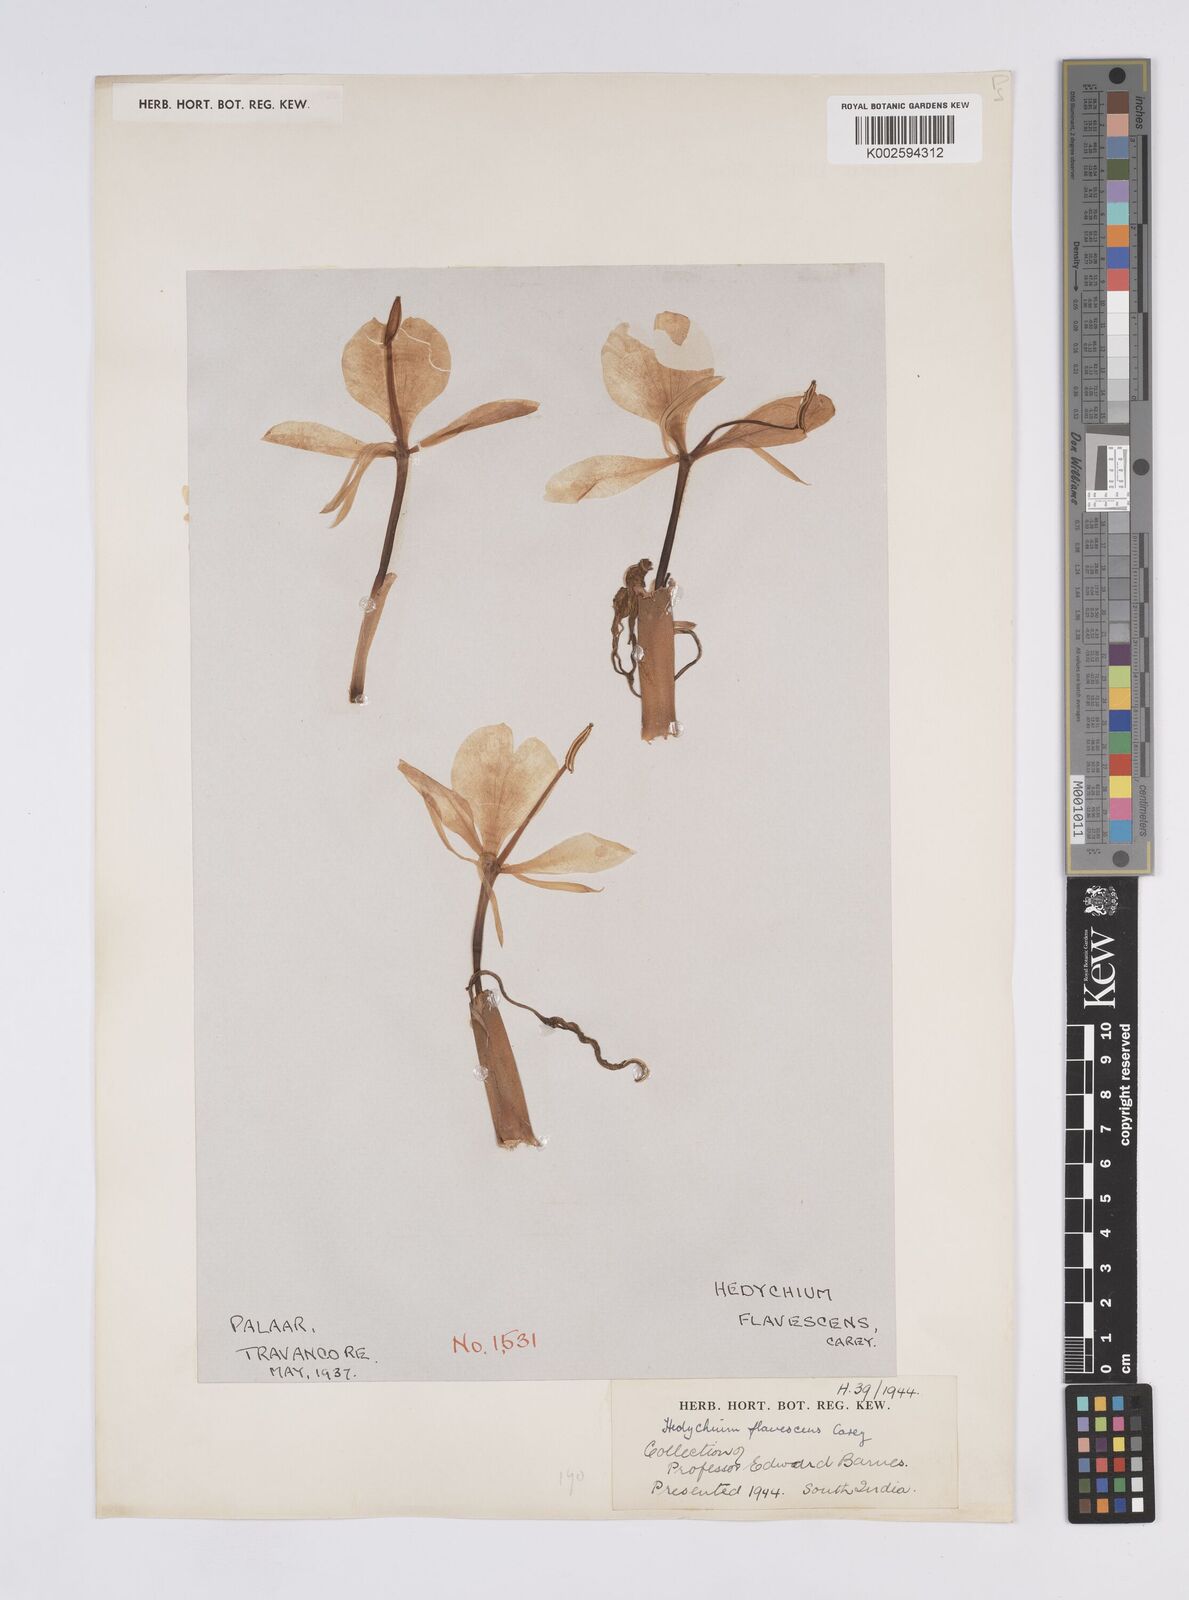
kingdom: Plantae
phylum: Tracheophyta
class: Liliopsida
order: Zingiberales
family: Zingiberaceae
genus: Hedychium
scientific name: Hedychium flavescens
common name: Yellow ginger
